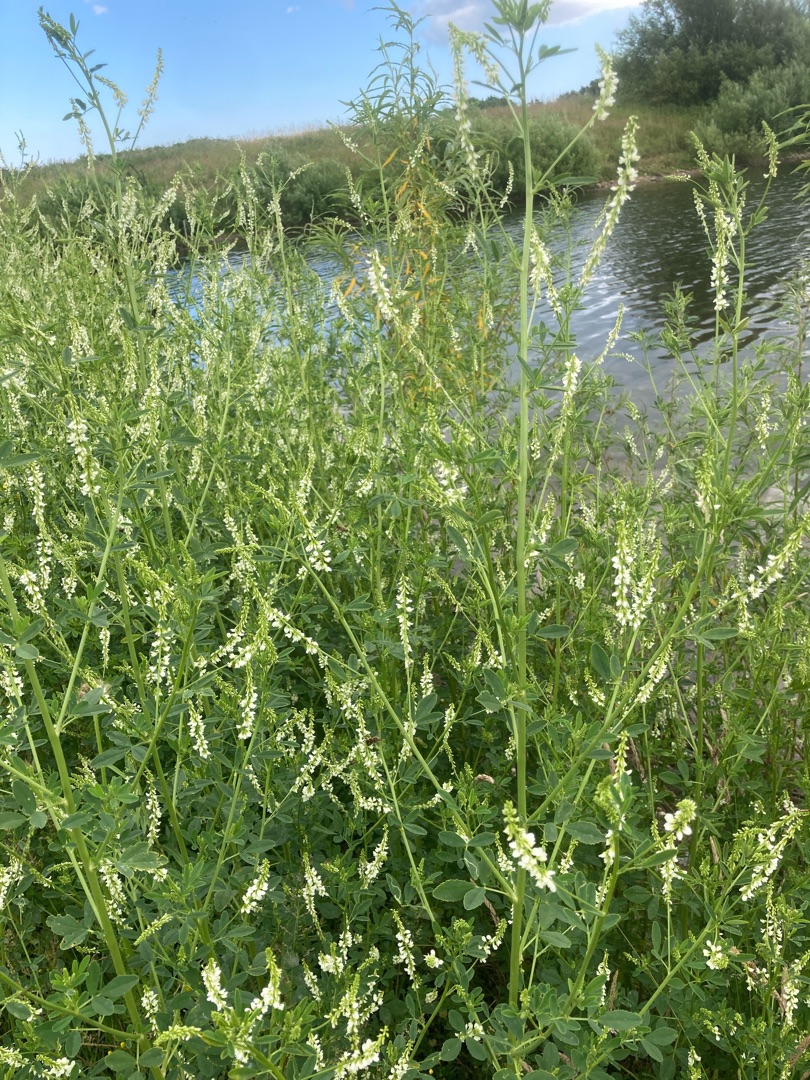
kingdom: Plantae
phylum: Tracheophyta
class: Magnoliopsida
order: Fabales
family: Fabaceae
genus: Melilotus
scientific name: Melilotus albus
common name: Hvid stenkløver
